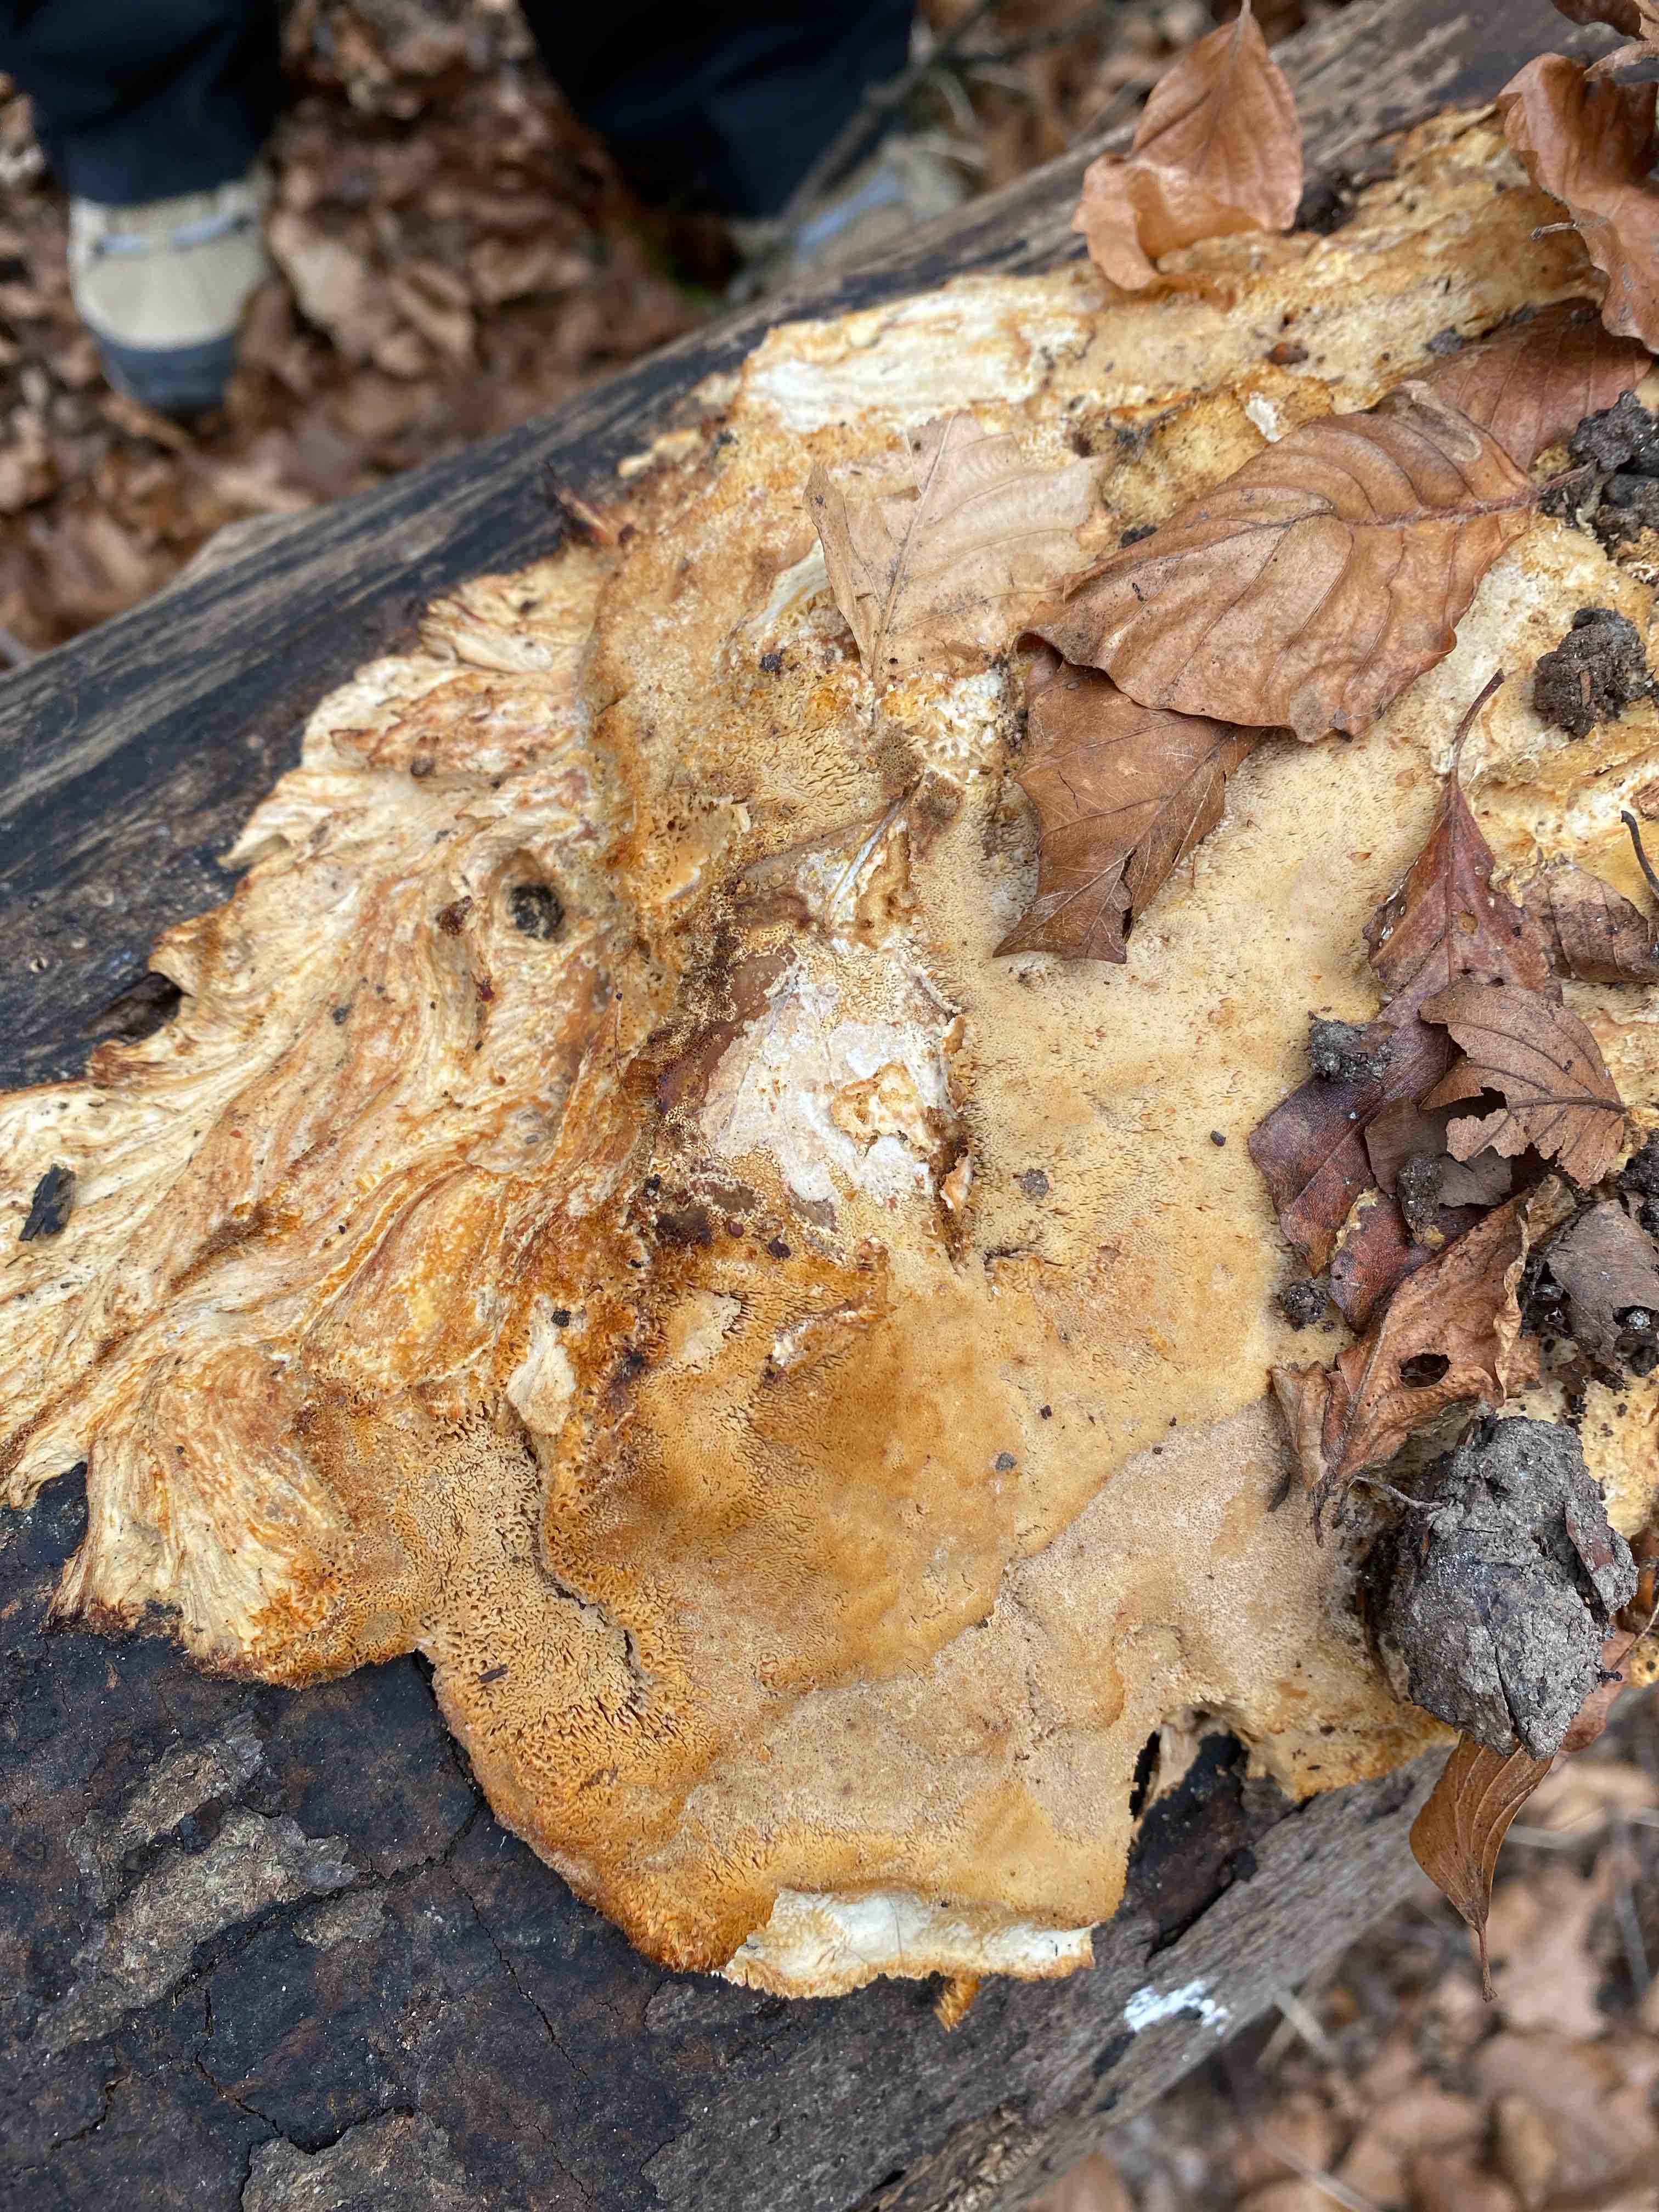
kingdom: Fungi
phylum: Basidiomycota
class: Agaricomycetes
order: Polyporales
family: Ischnodermataceae
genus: Ischnoderma
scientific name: Ischnoderma resinosum
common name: løv-tjæreporesvamp
